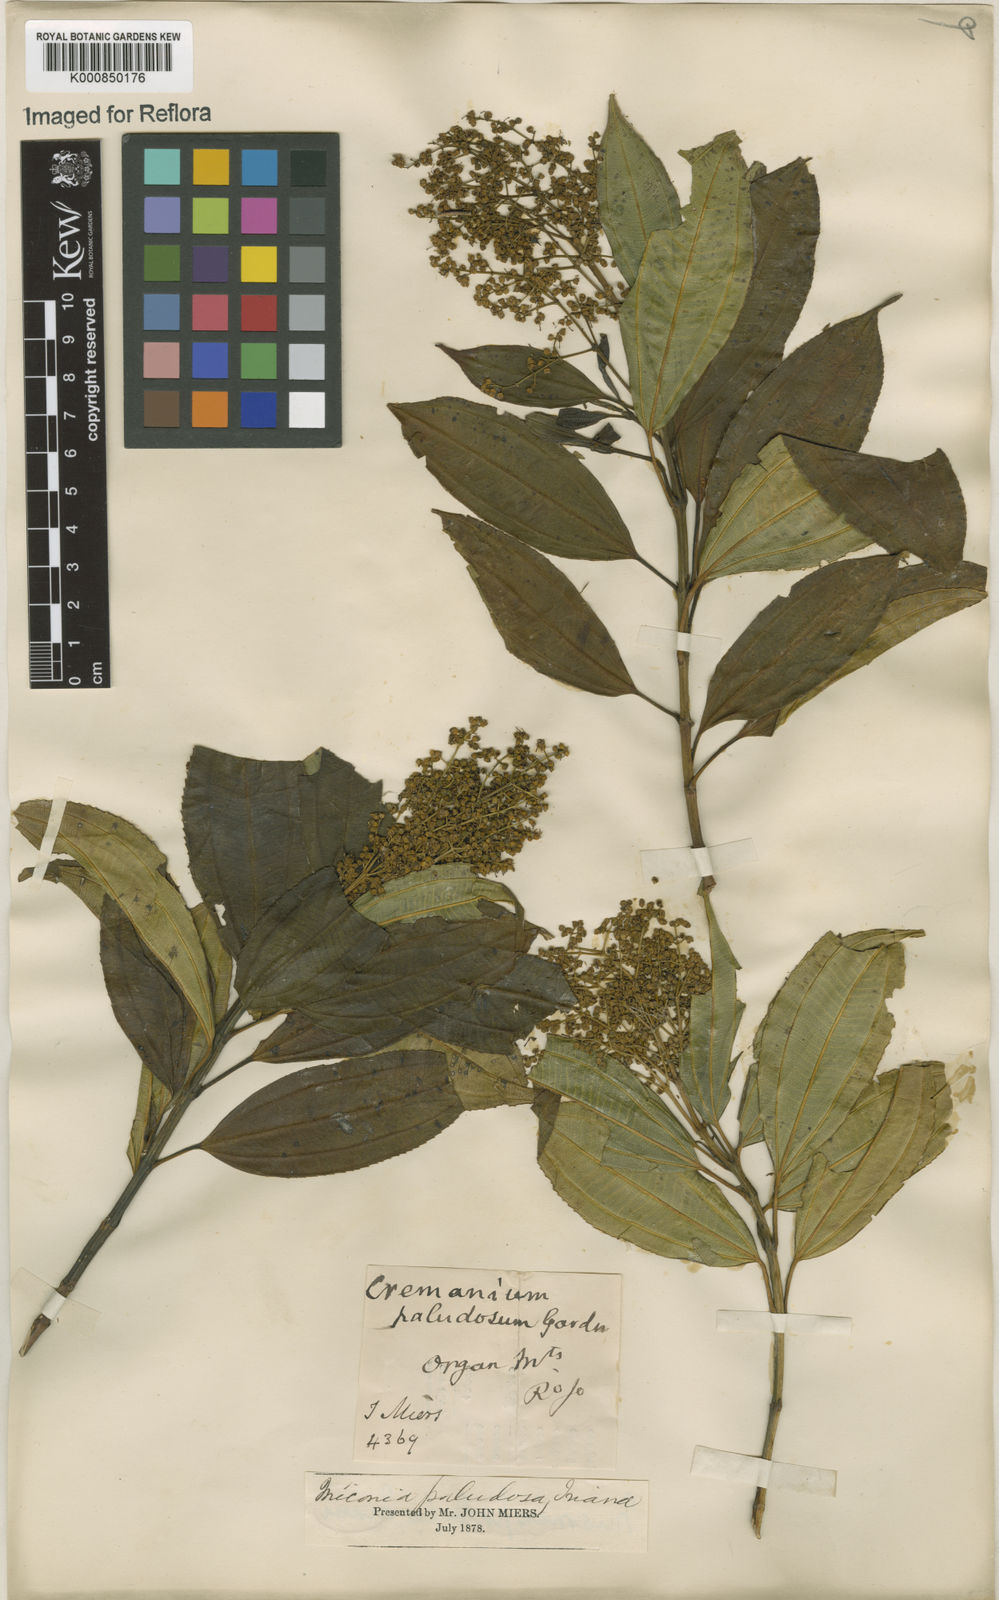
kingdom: Plantae
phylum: Tracheophyta
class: Magnoliopsida
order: Myrtales
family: Melastomataceae
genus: Miconia
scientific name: Miconia
